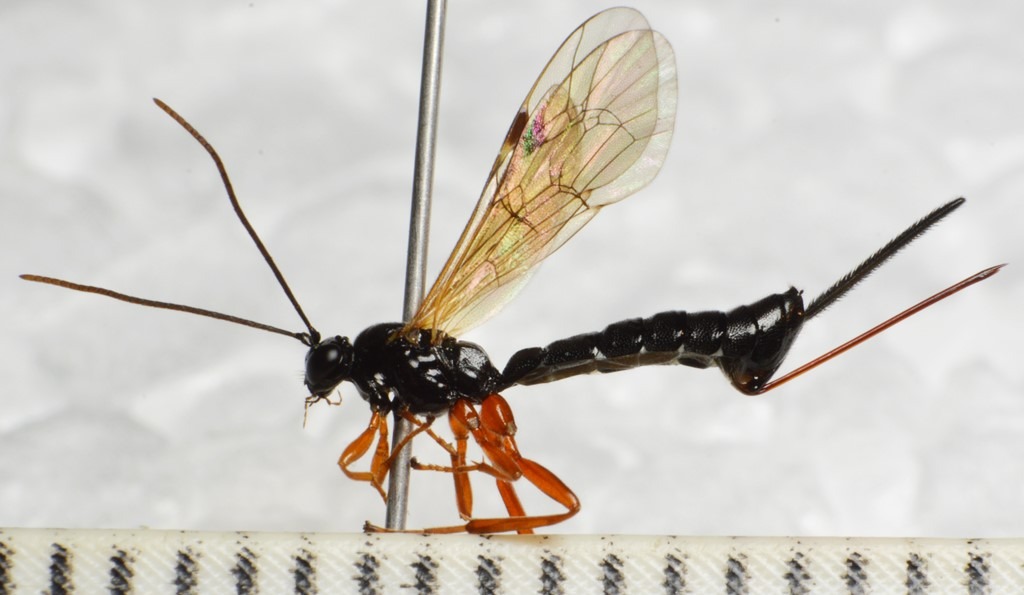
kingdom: Animalia
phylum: Arthropoda
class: Insecta
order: Hymenoptera
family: Ichneumonidae
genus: Scambus
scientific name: Scambus nigricans
